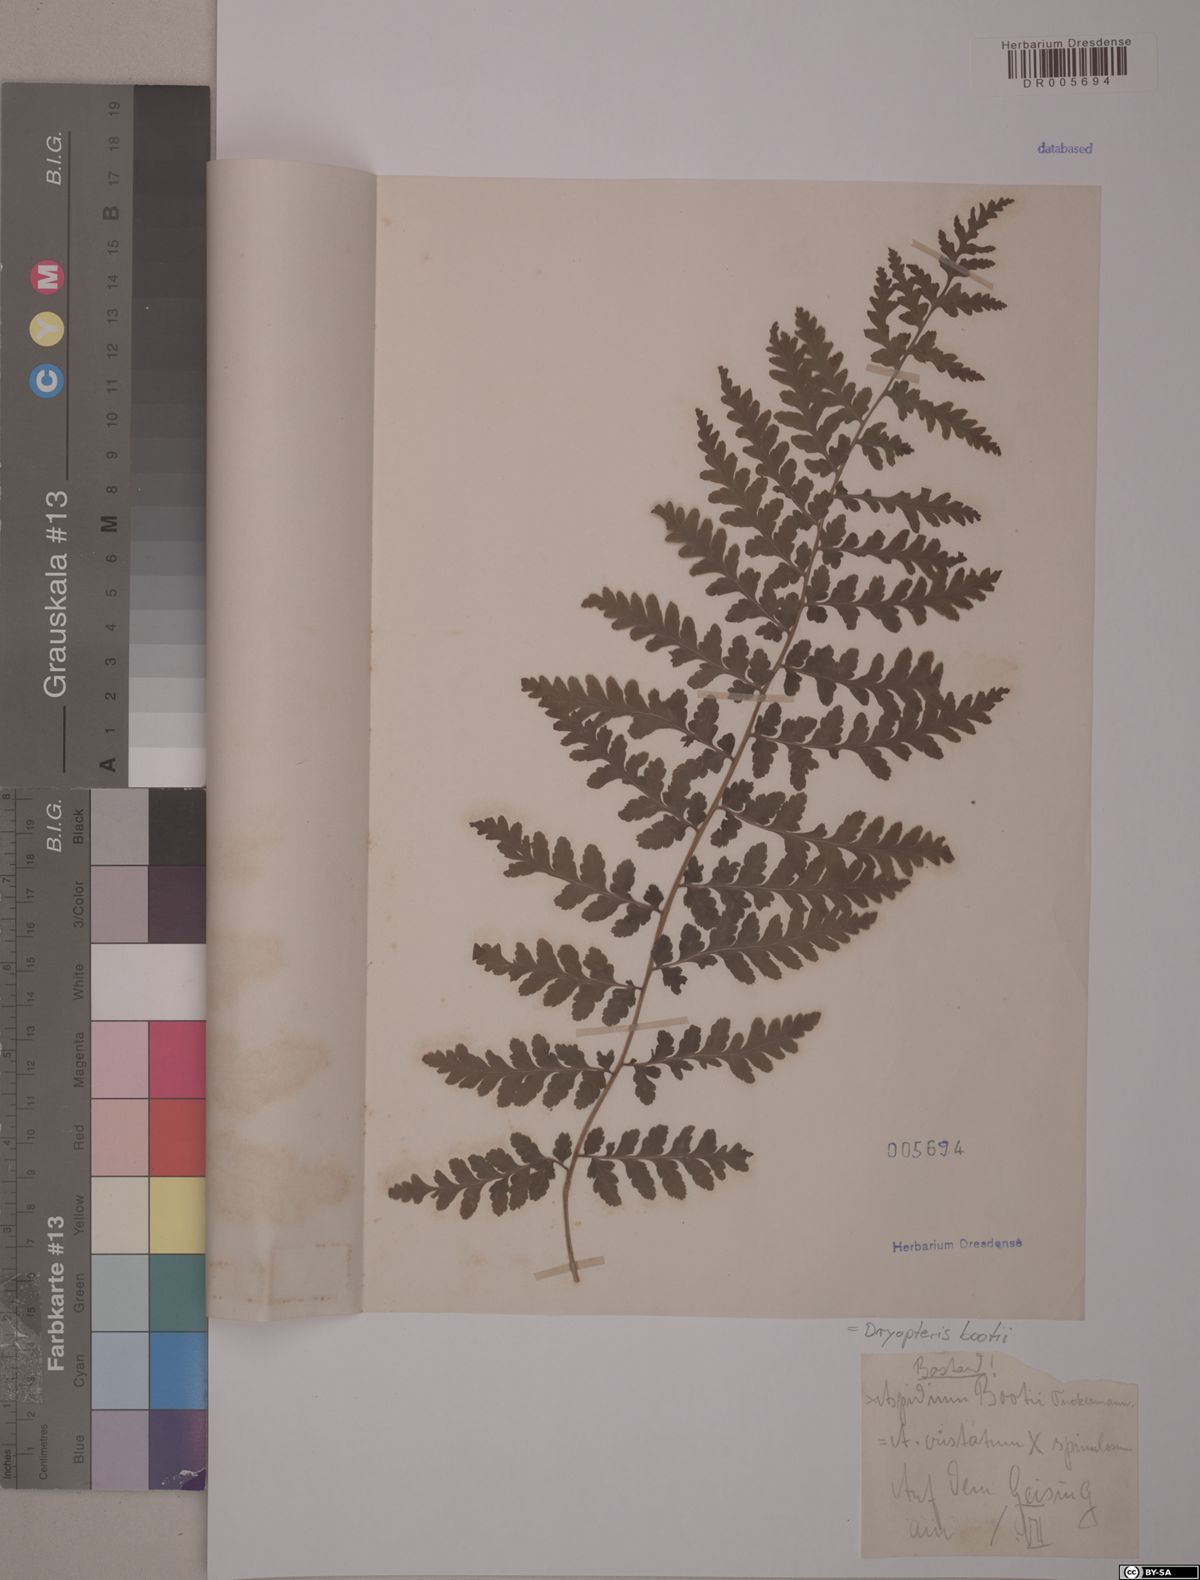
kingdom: Plantae
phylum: Tracheophyta
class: Polypodiopsida
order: Polypodiales
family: Dryopteridaceae
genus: Dryopteris
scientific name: Dryopteris boottii
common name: Boott's fern
